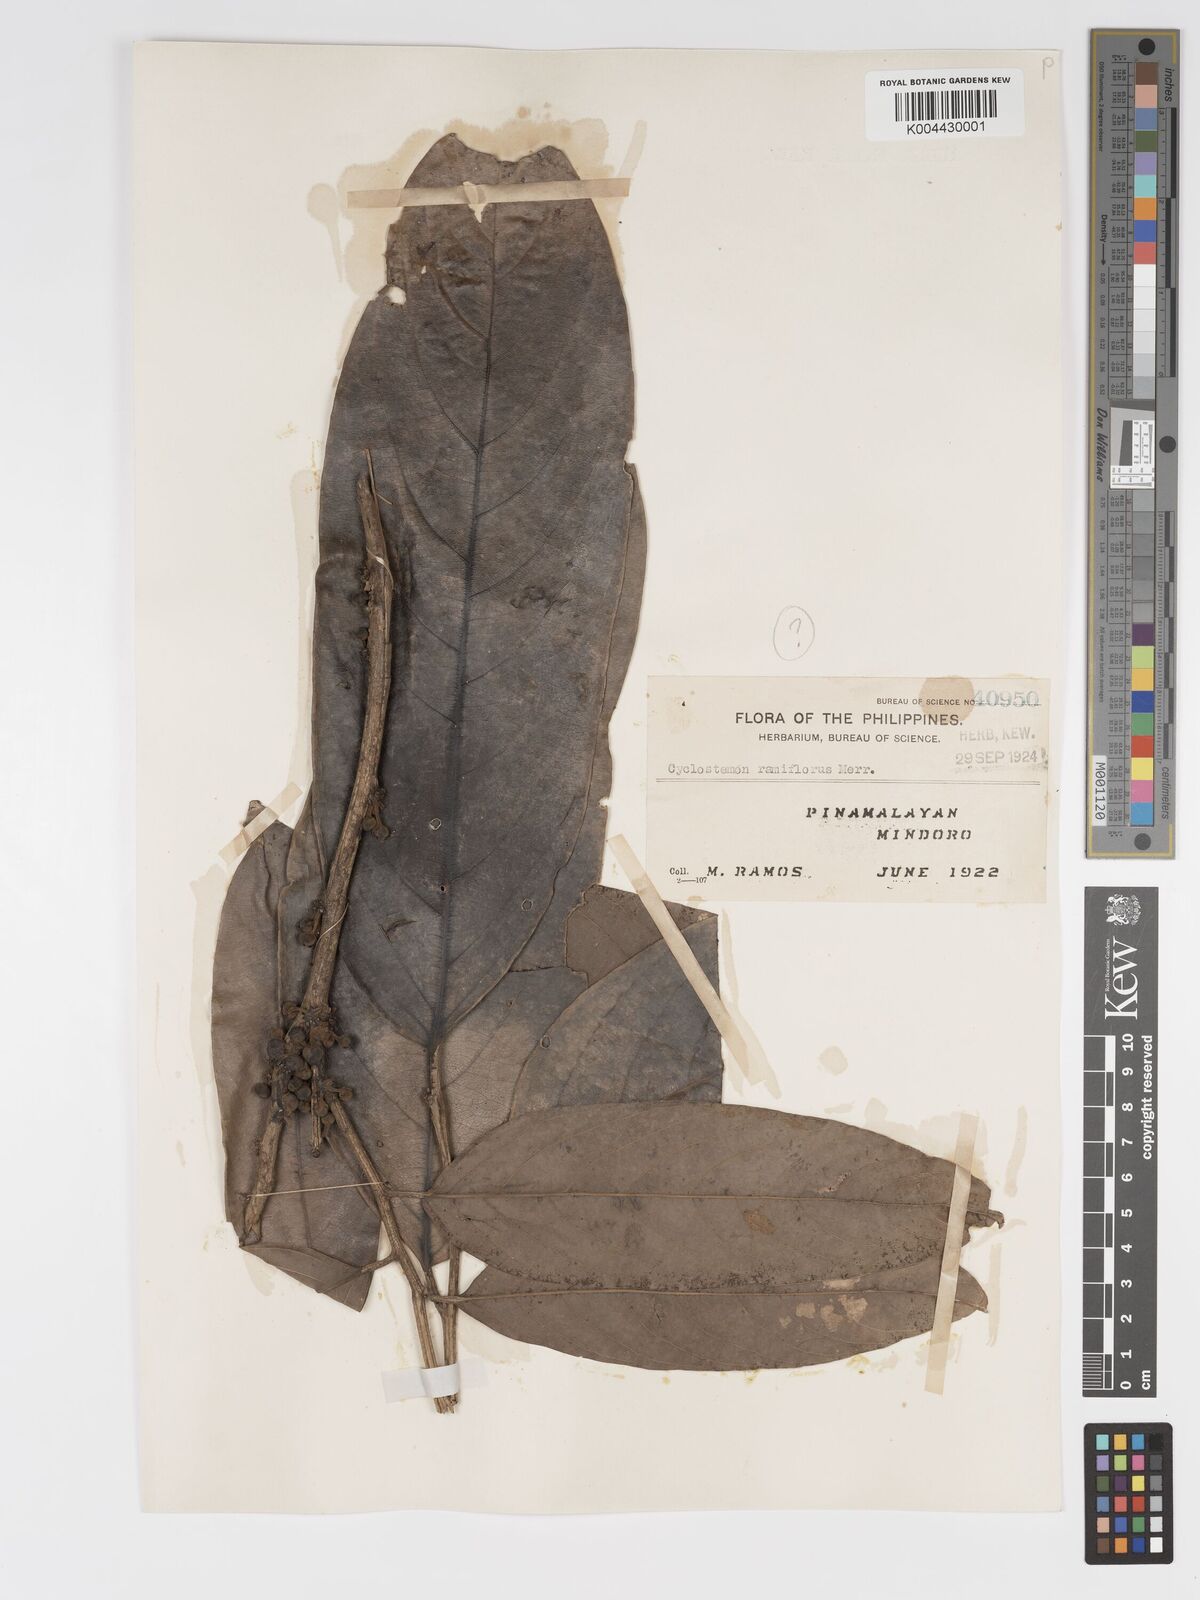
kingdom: Plantae
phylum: Tracheophyta
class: Magnoliopsida
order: Malpighiales
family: Putranjivaceae
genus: Drypetes
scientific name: Drypetes longifolia
